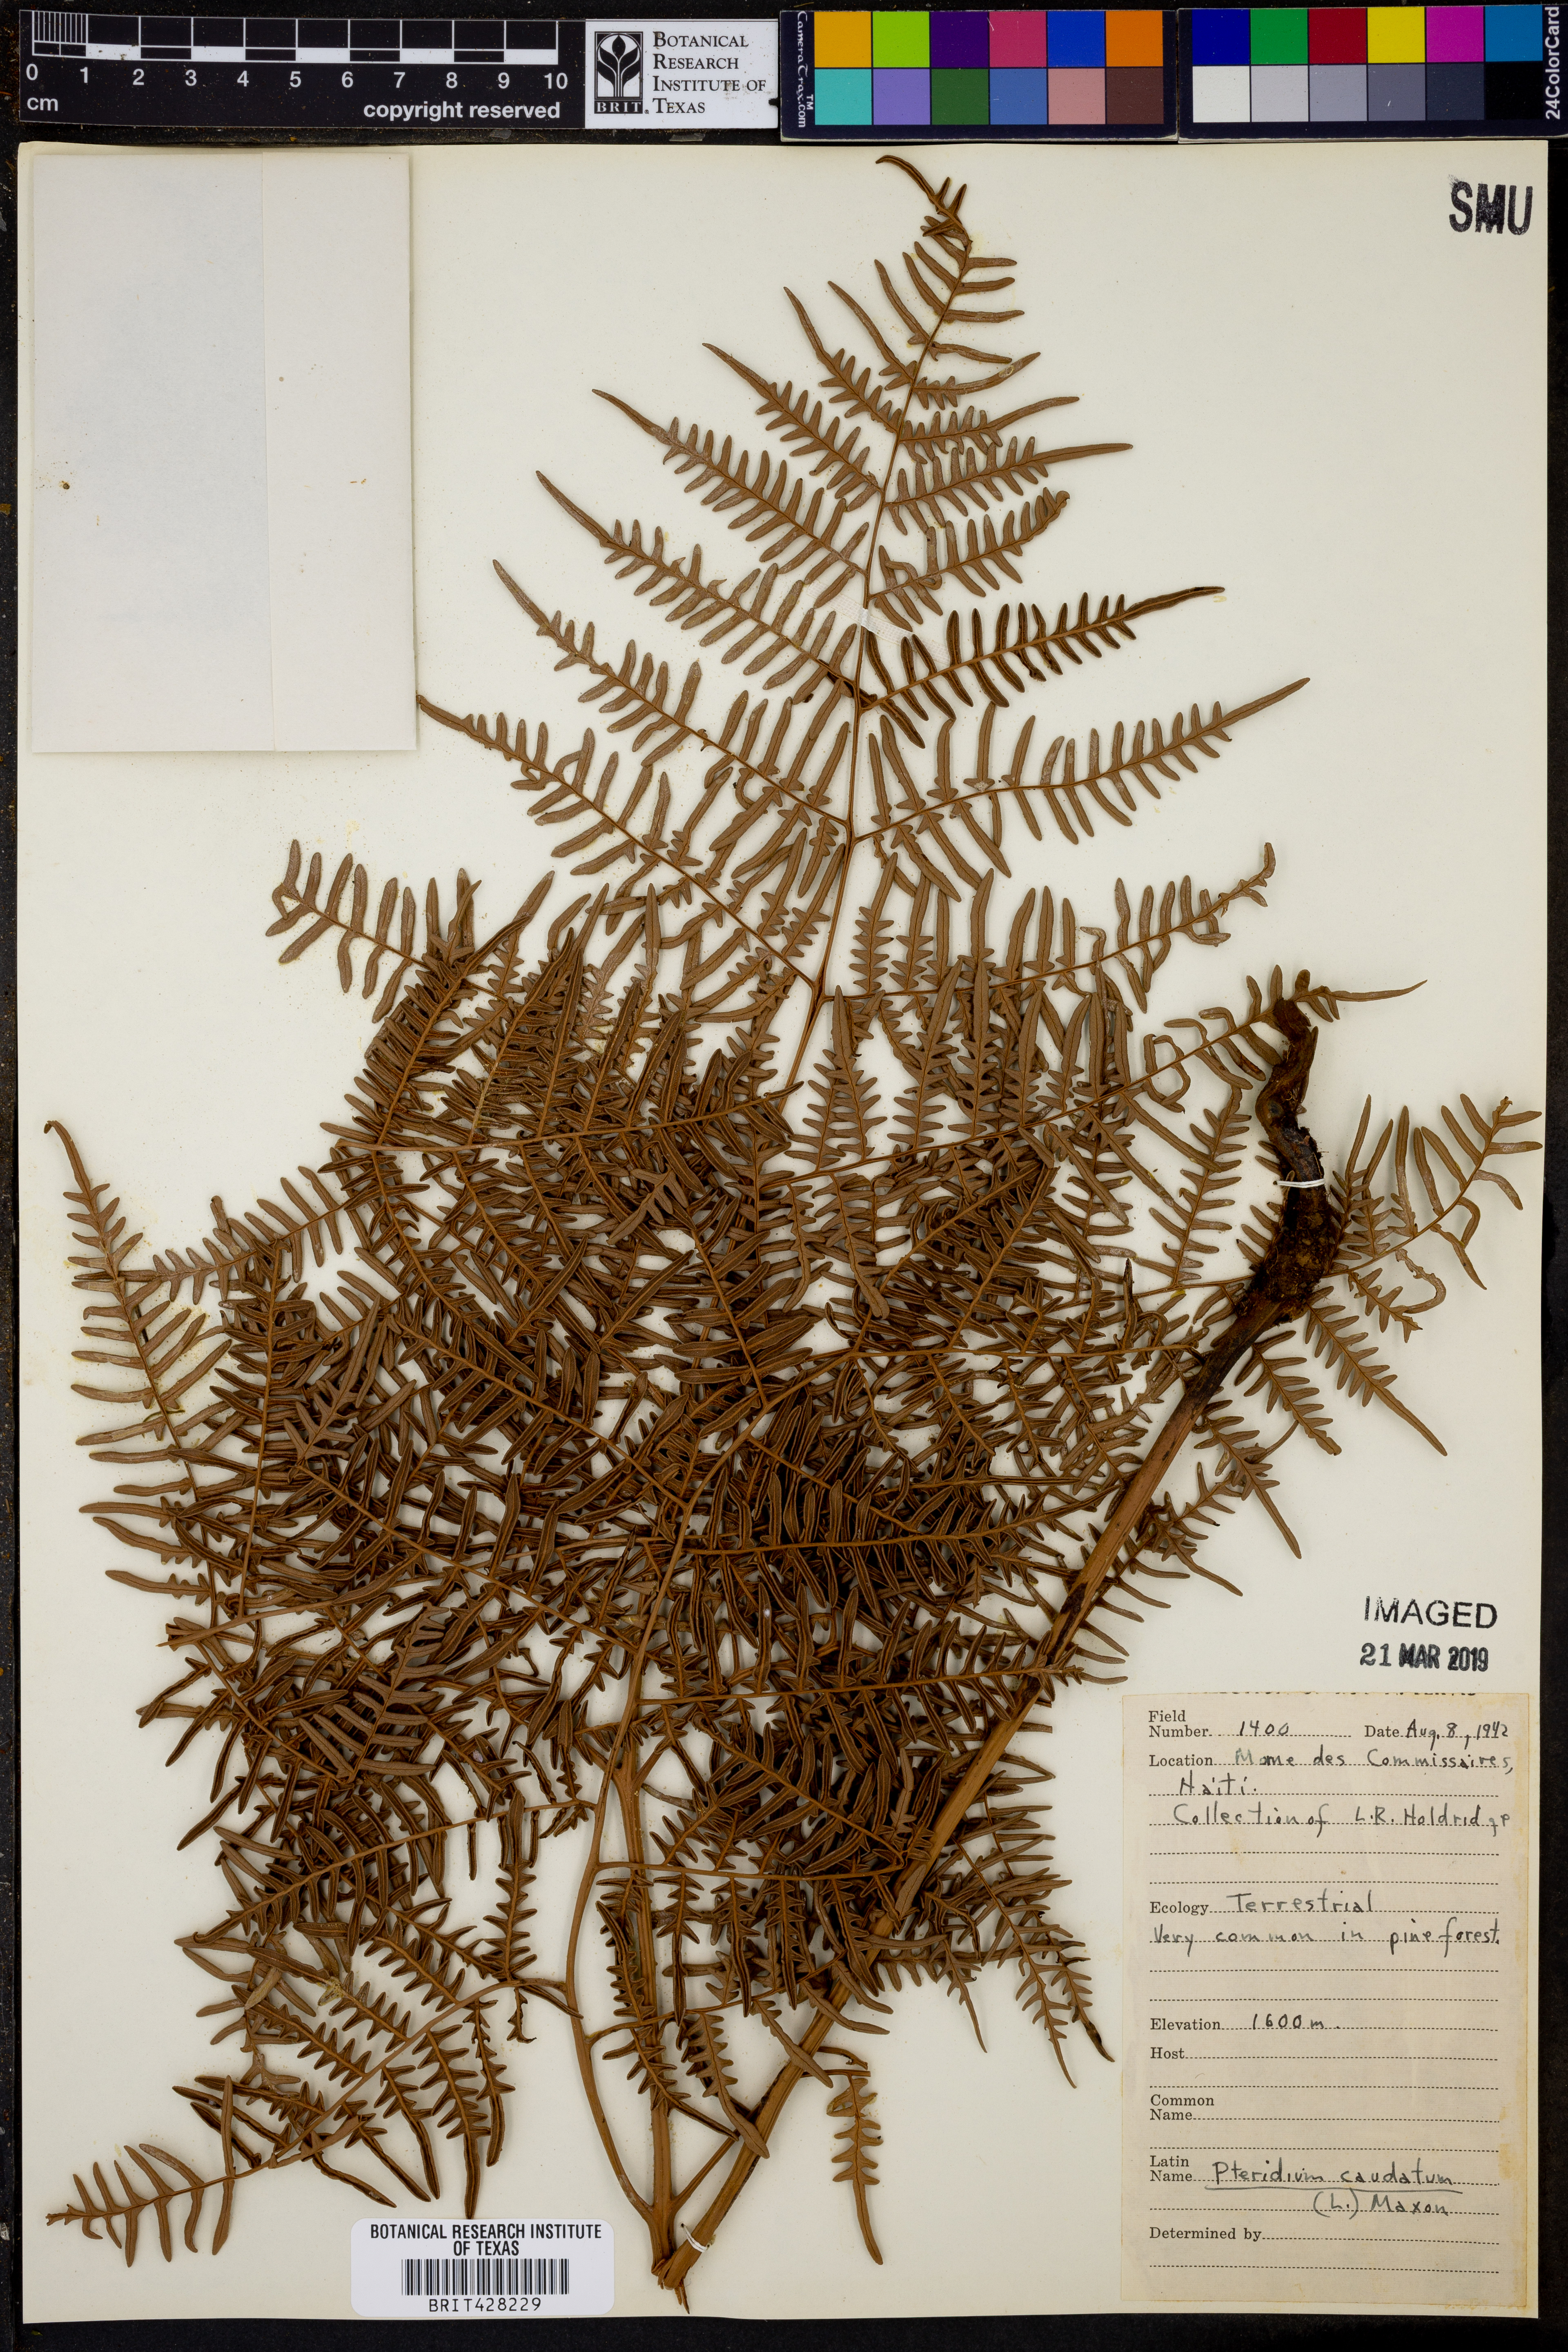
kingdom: Plantae
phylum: Tracheophyta
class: Polypodiopsida
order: Polypodiales
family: Dennstaedtiaceae
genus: Pteridium
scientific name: Pteridium caudatum
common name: Southern bracken fern
